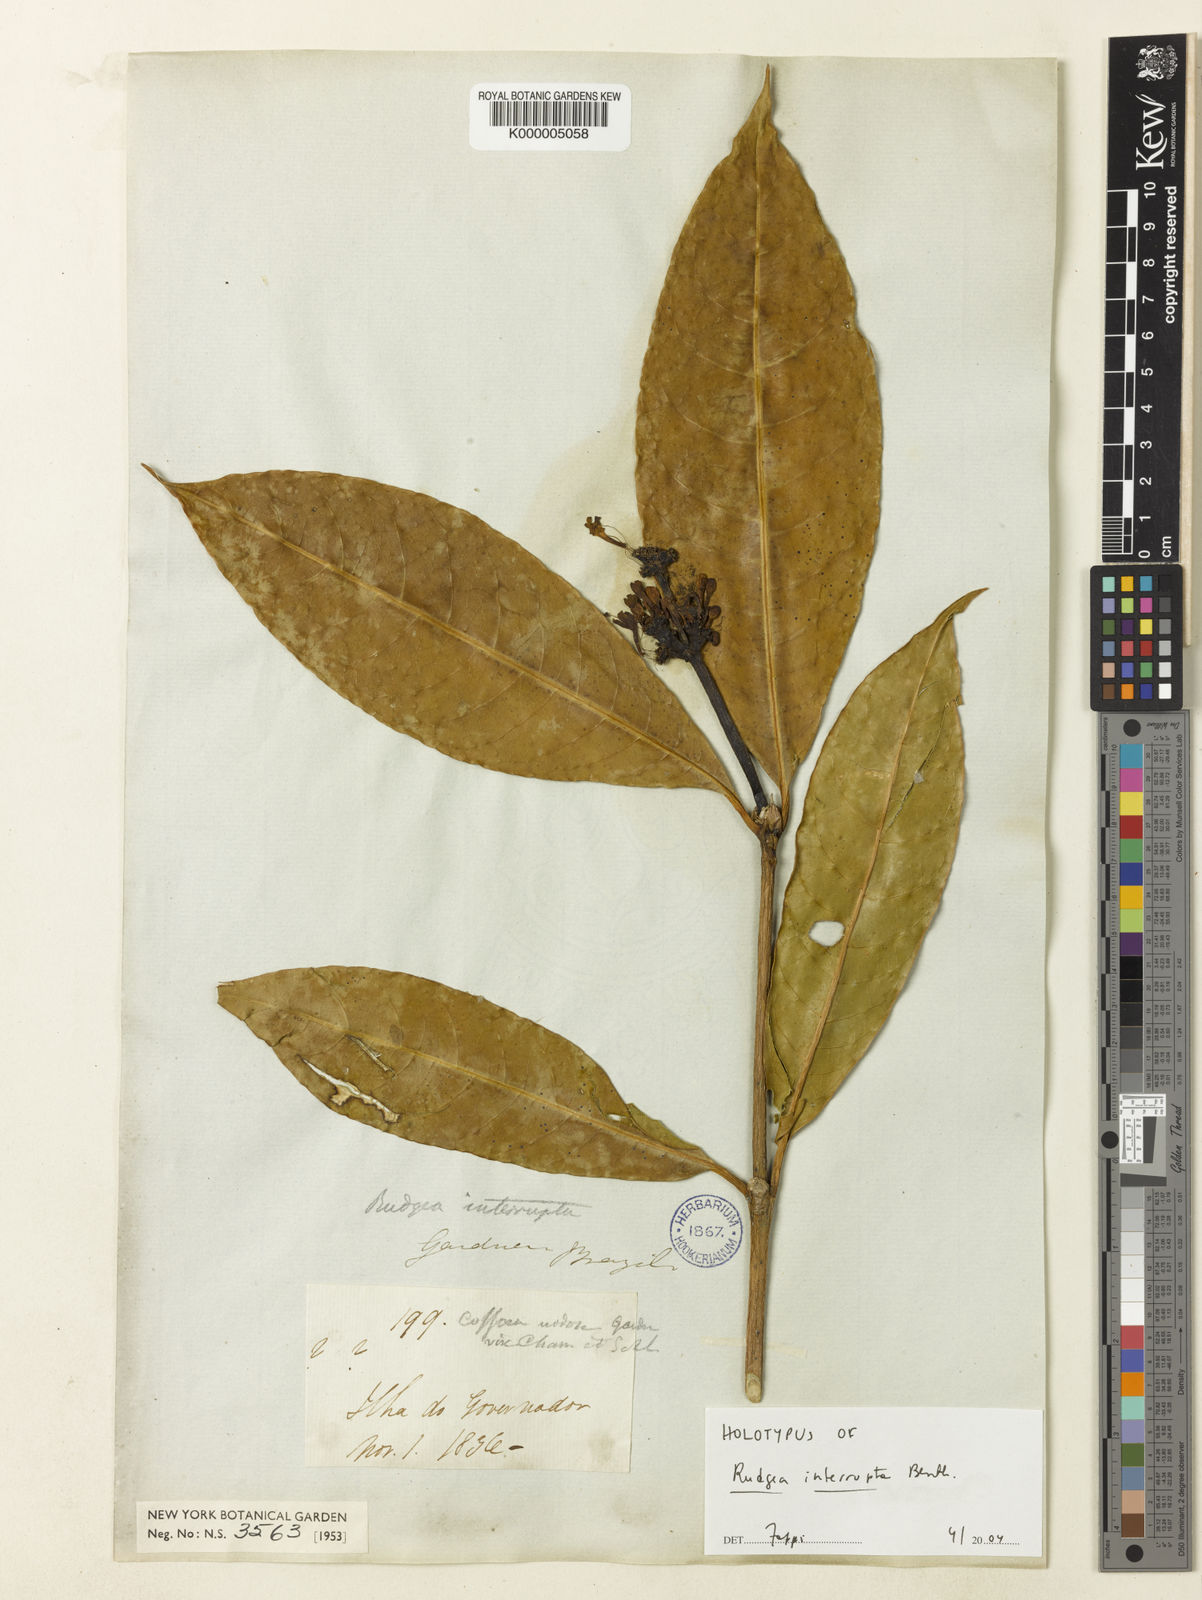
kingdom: Plantae
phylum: Tracheophyta
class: Magnoliopsida
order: Gentianales
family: Rubiaceae
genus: Rudgea
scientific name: Rudgea interrupta
